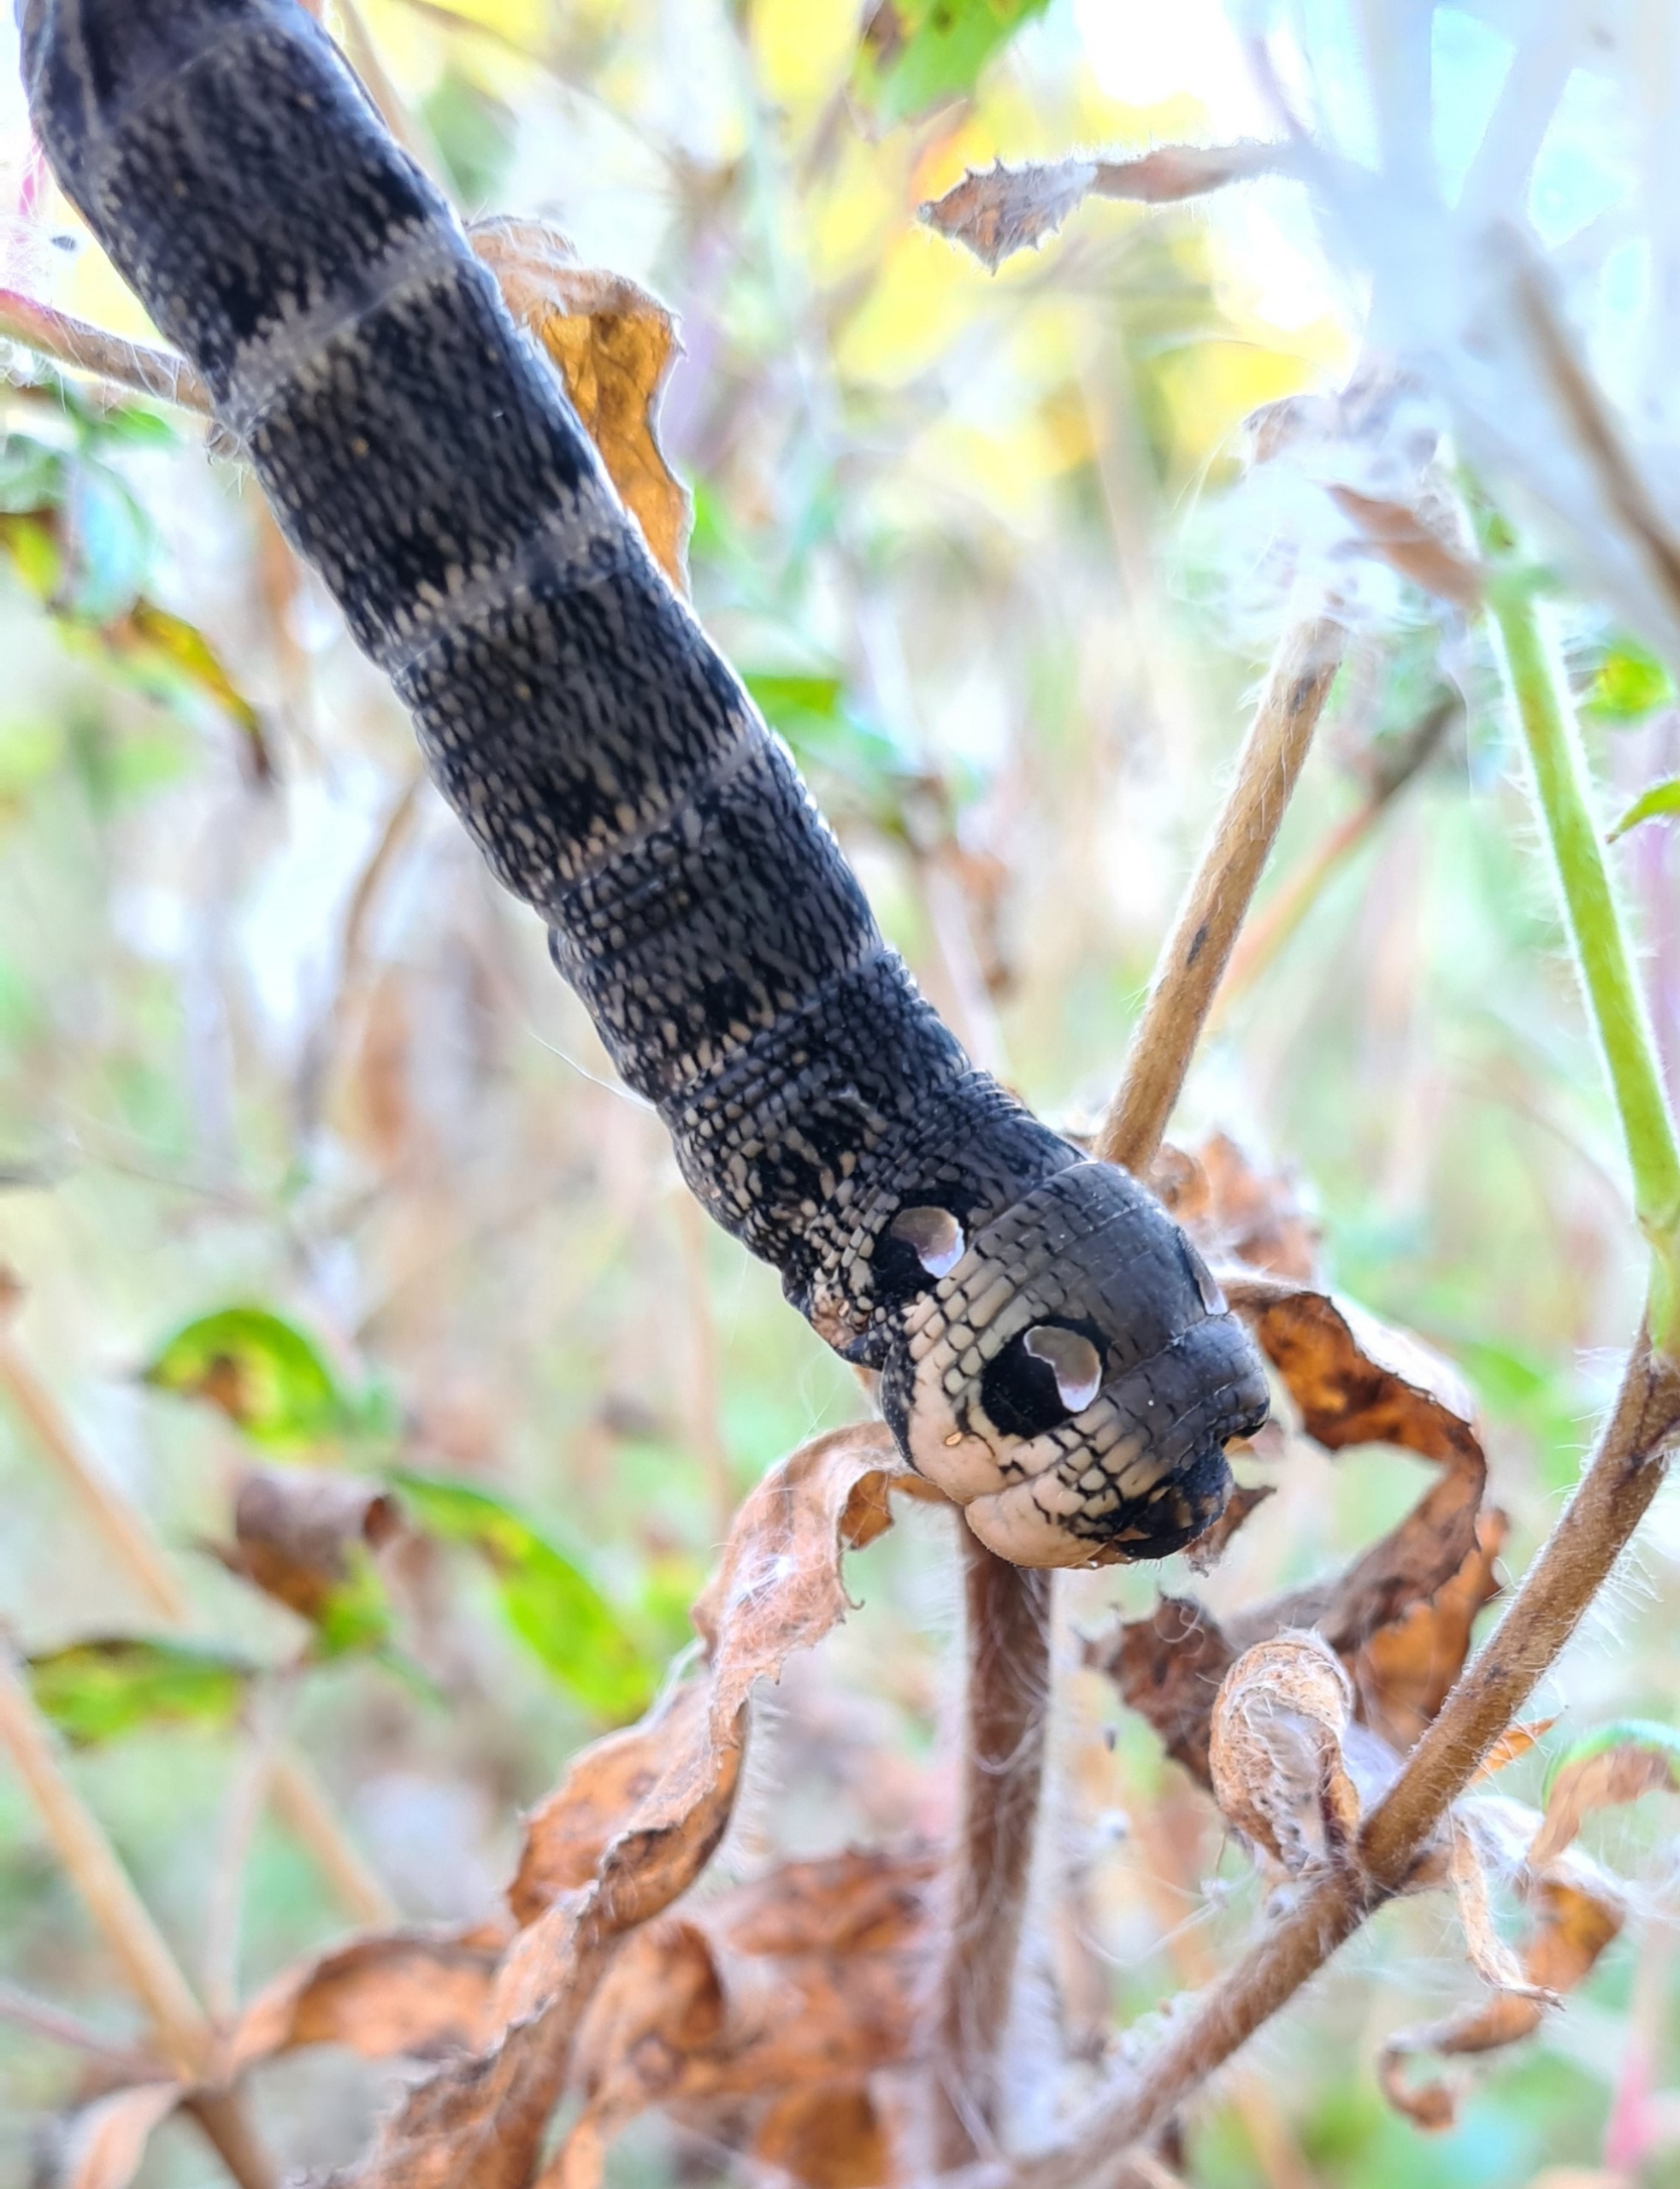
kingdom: Animalia
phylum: Arthropoda
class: Insecta
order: Lepidoptera
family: Sphingidae
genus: Deilephila
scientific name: Deilephila elpenor
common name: Dueurtsværmer
